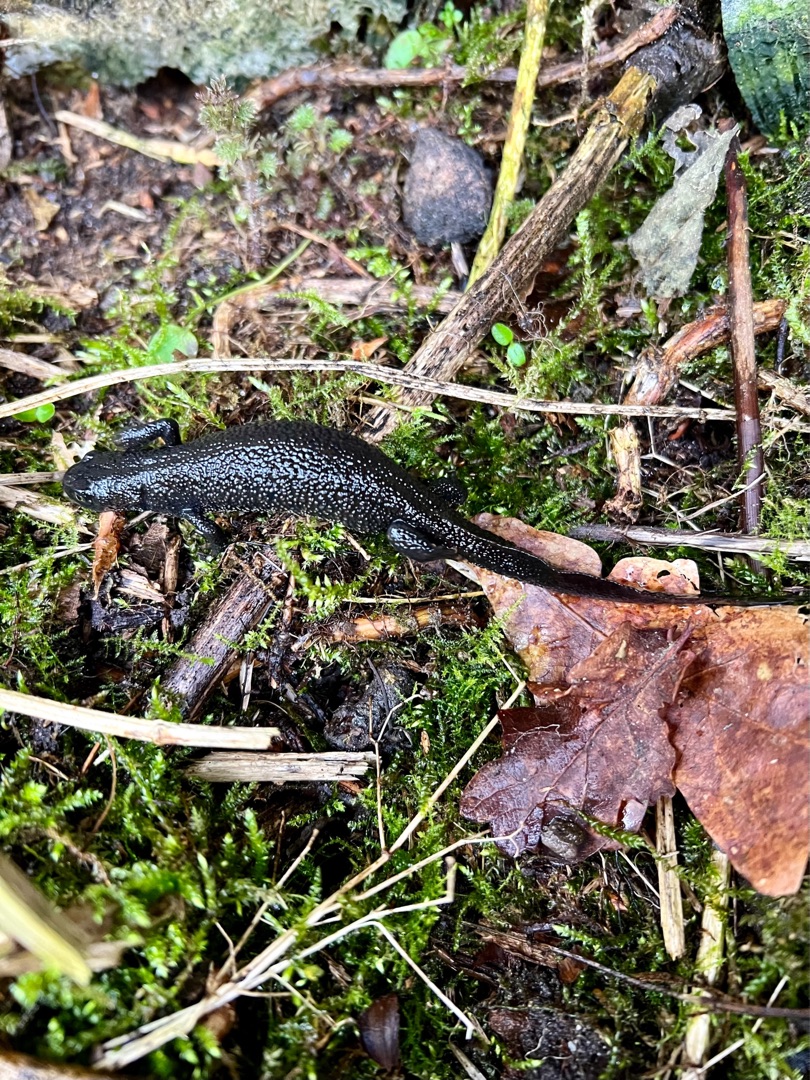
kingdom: Animalia
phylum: Chordata
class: Amphibia
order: Caudata
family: Salamandridae
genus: Triturus
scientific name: Triturus cristatus
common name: Stor vandsalamander
